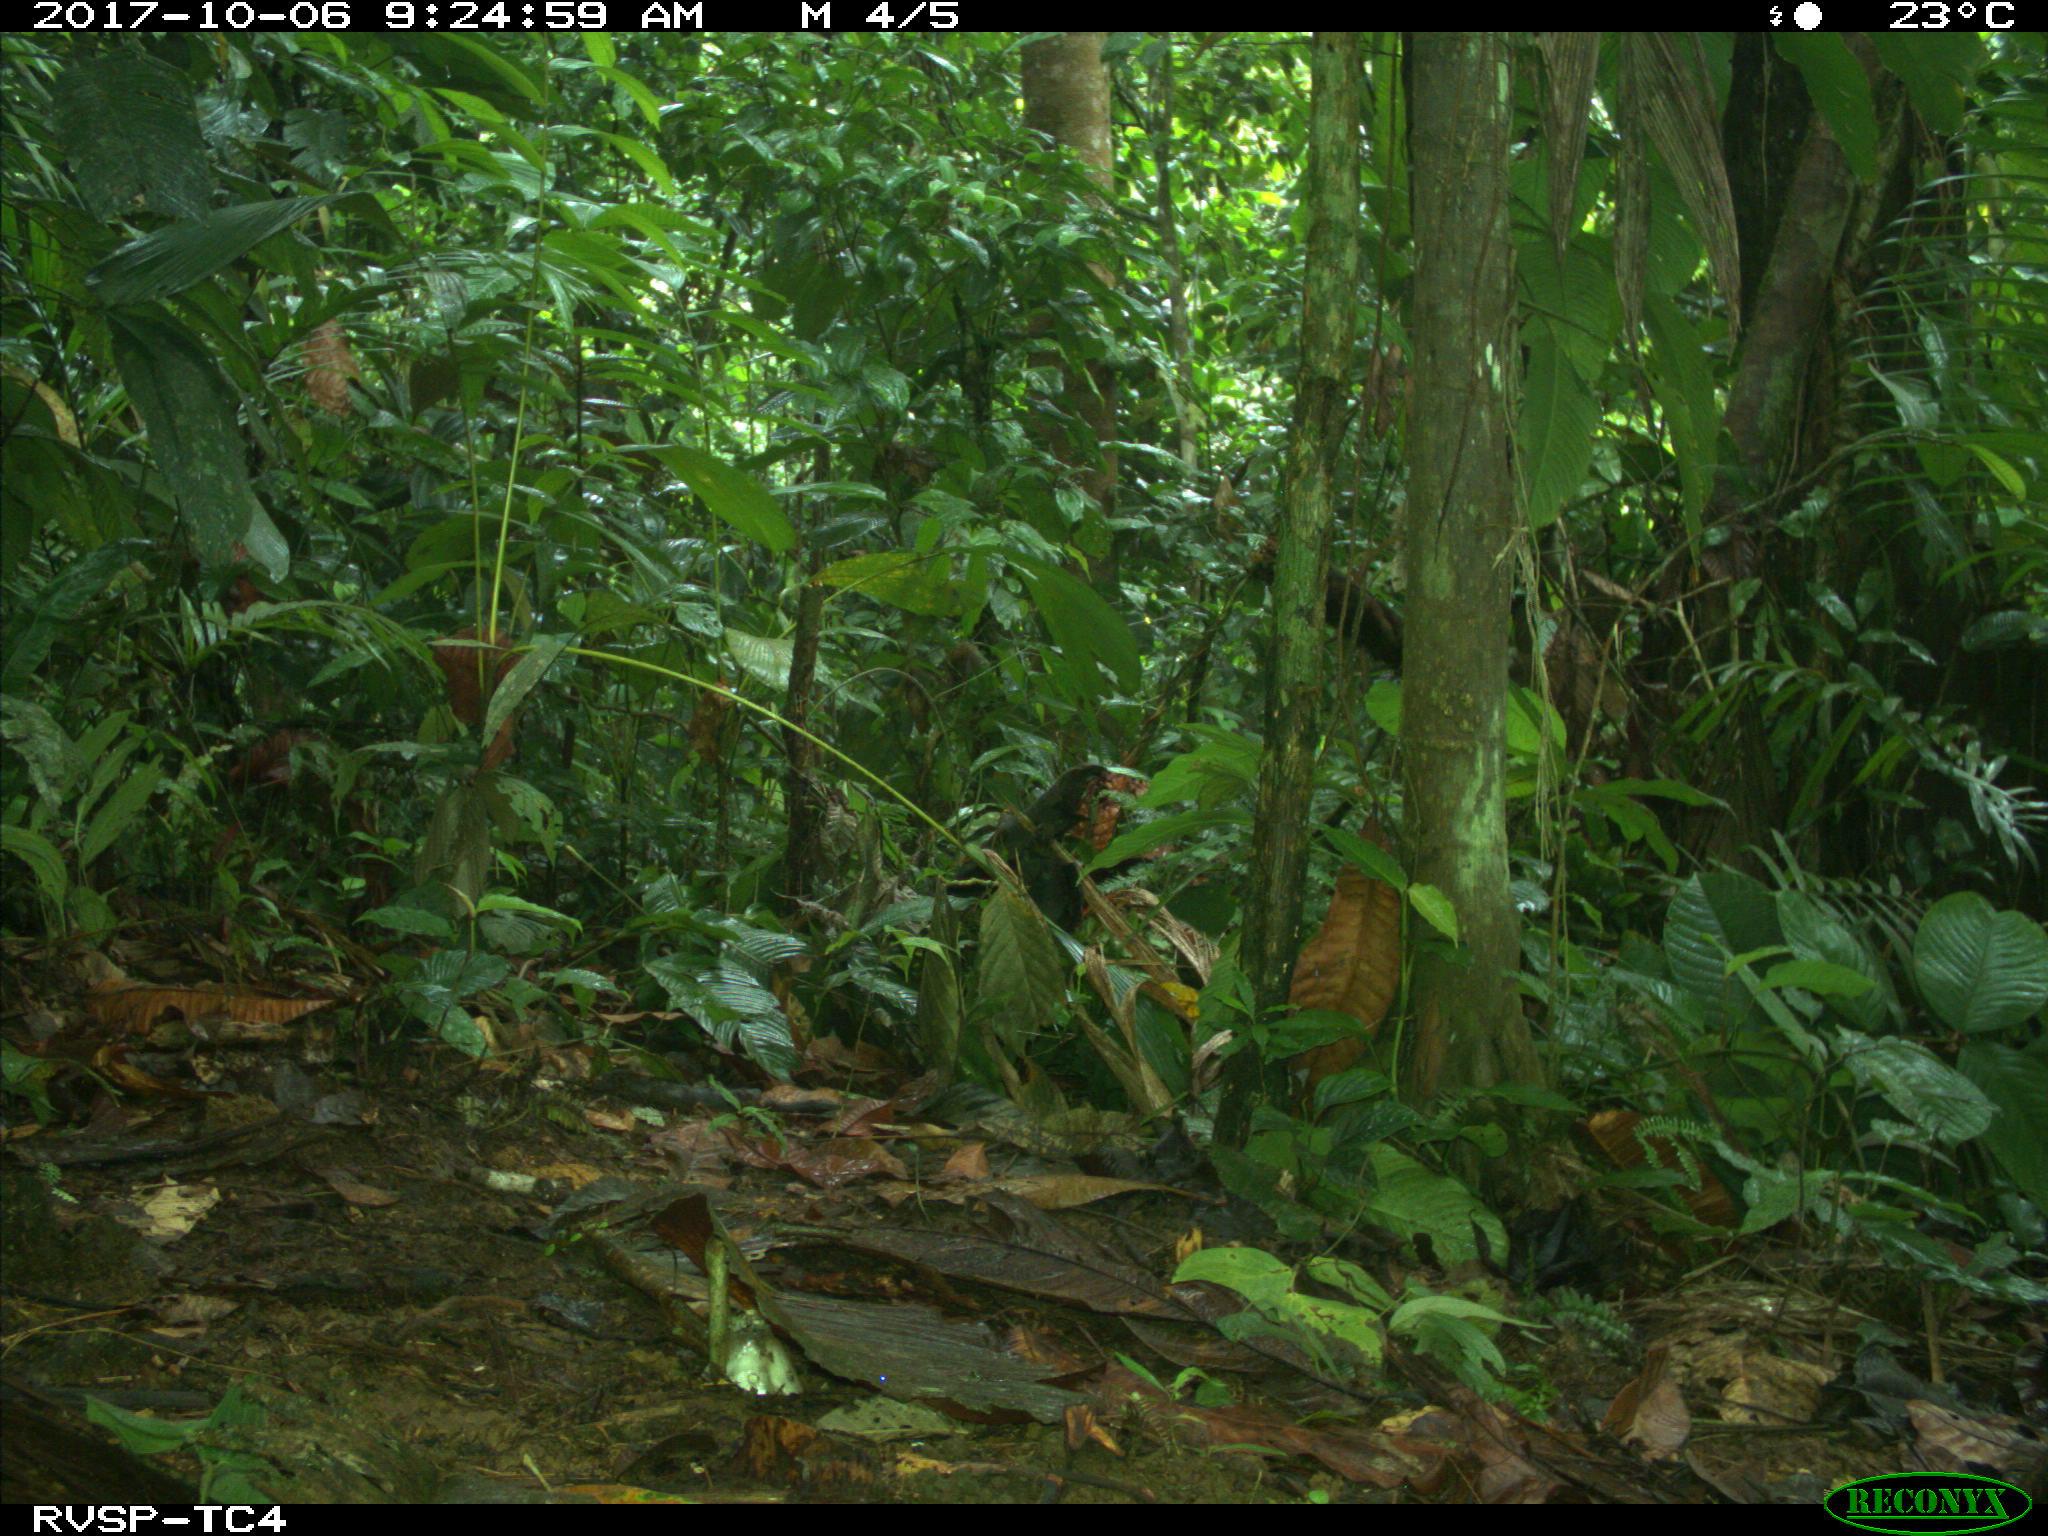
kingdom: Animalia
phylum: Chordata
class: Mammalia
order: Rodentia
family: Dasyproctidae
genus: Dasyprocta
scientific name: Dasyprocta punctata
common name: Central american agouti
